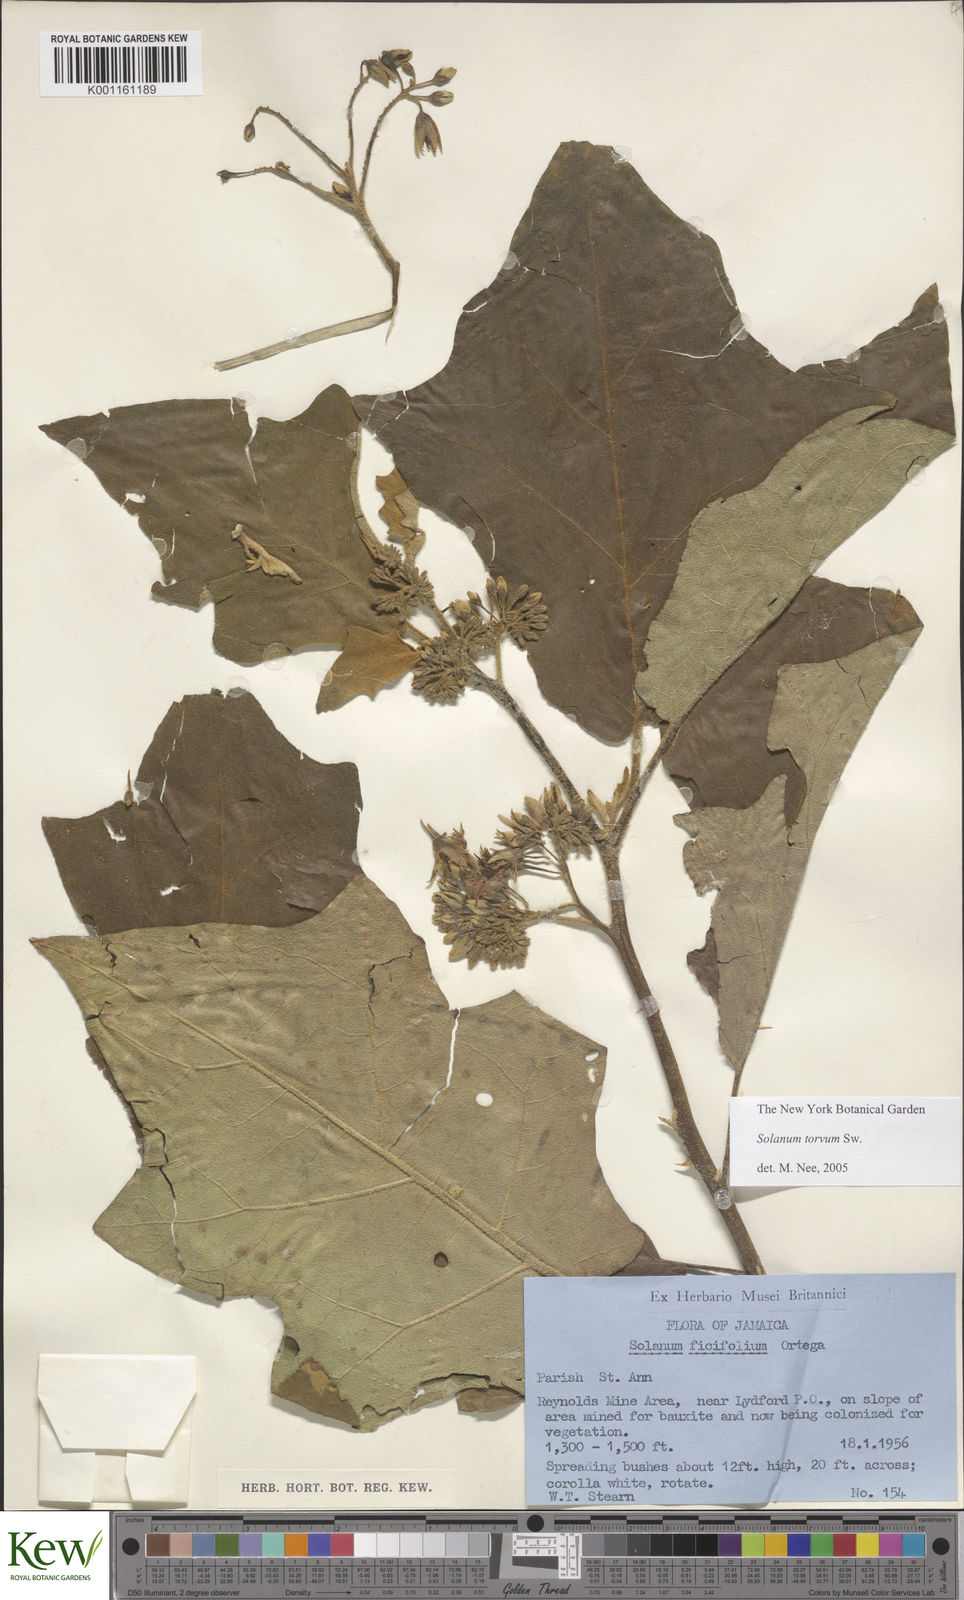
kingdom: Plantae
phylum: Tracheophyta
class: Magnoliopsida
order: Solanales
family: Solanaceae
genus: Solanum
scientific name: Solanum torvum
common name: Turkey berry
